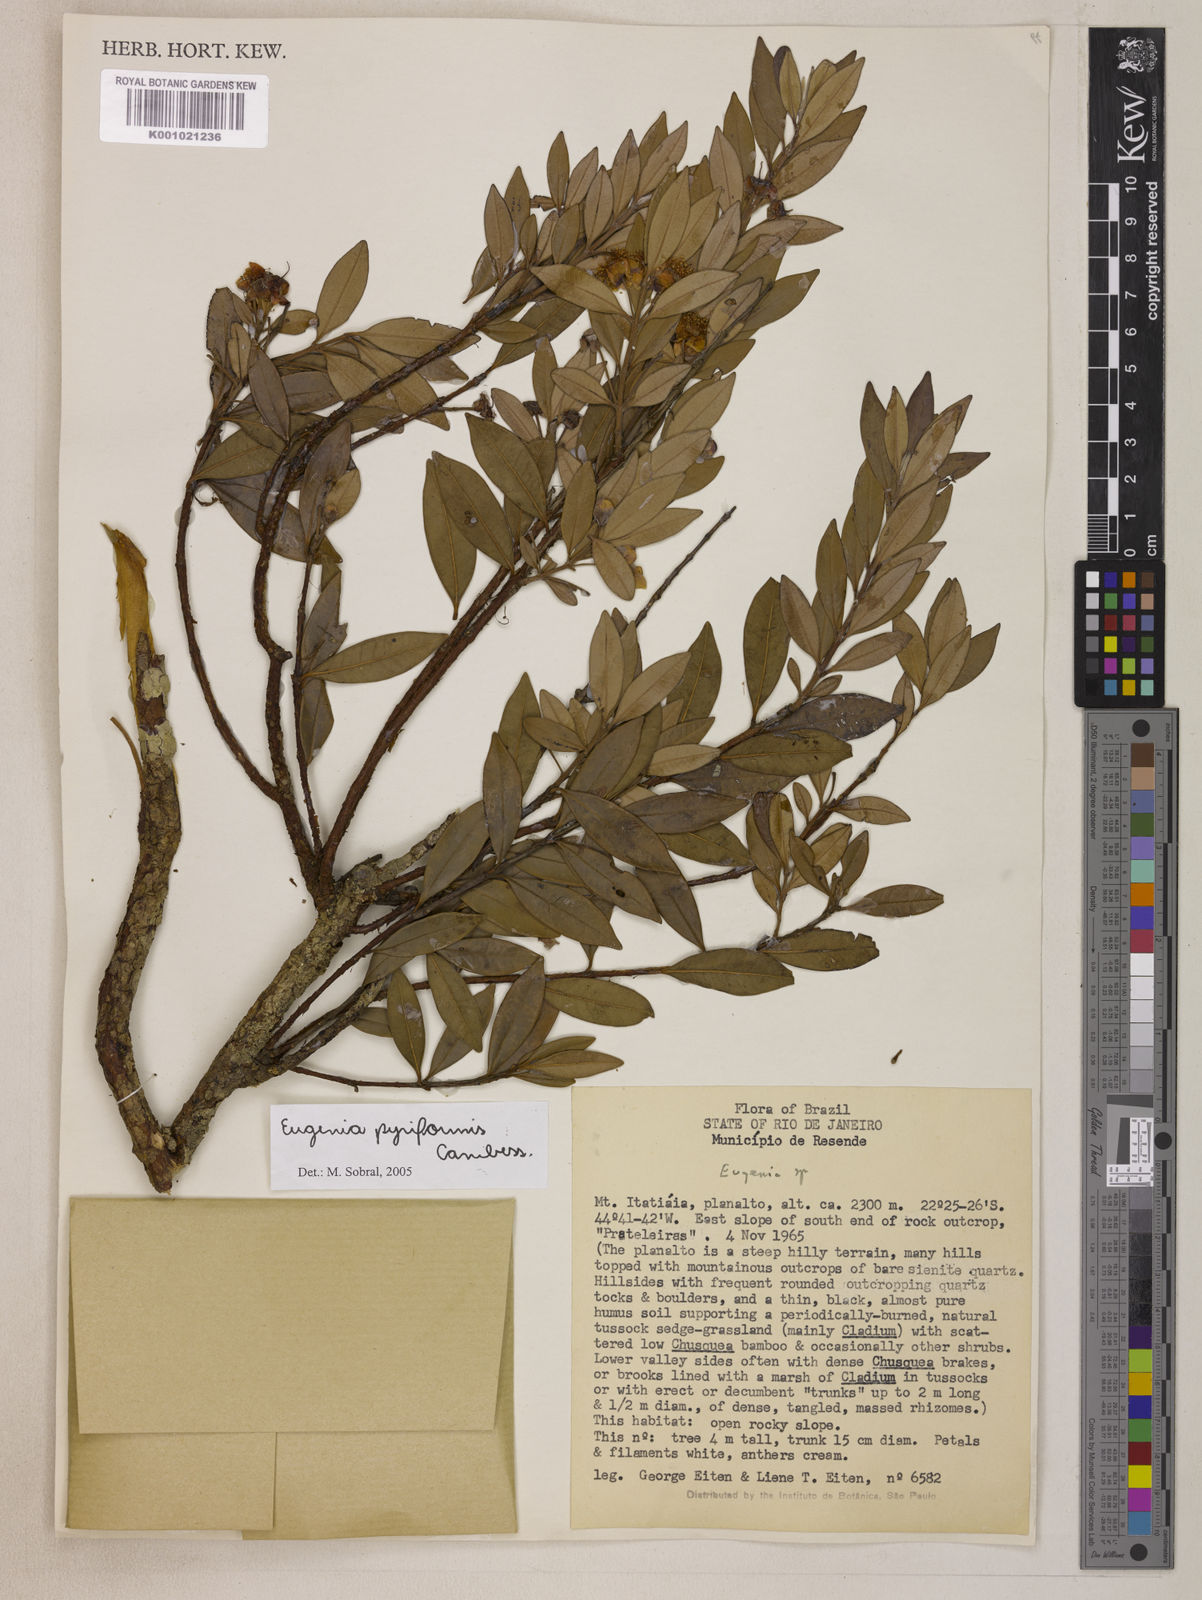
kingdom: Plantae
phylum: Tracheophyta
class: Magnoliopsida
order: Myrtales
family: Myrtaceae
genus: Eugenia
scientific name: Eugenia pyriformis
